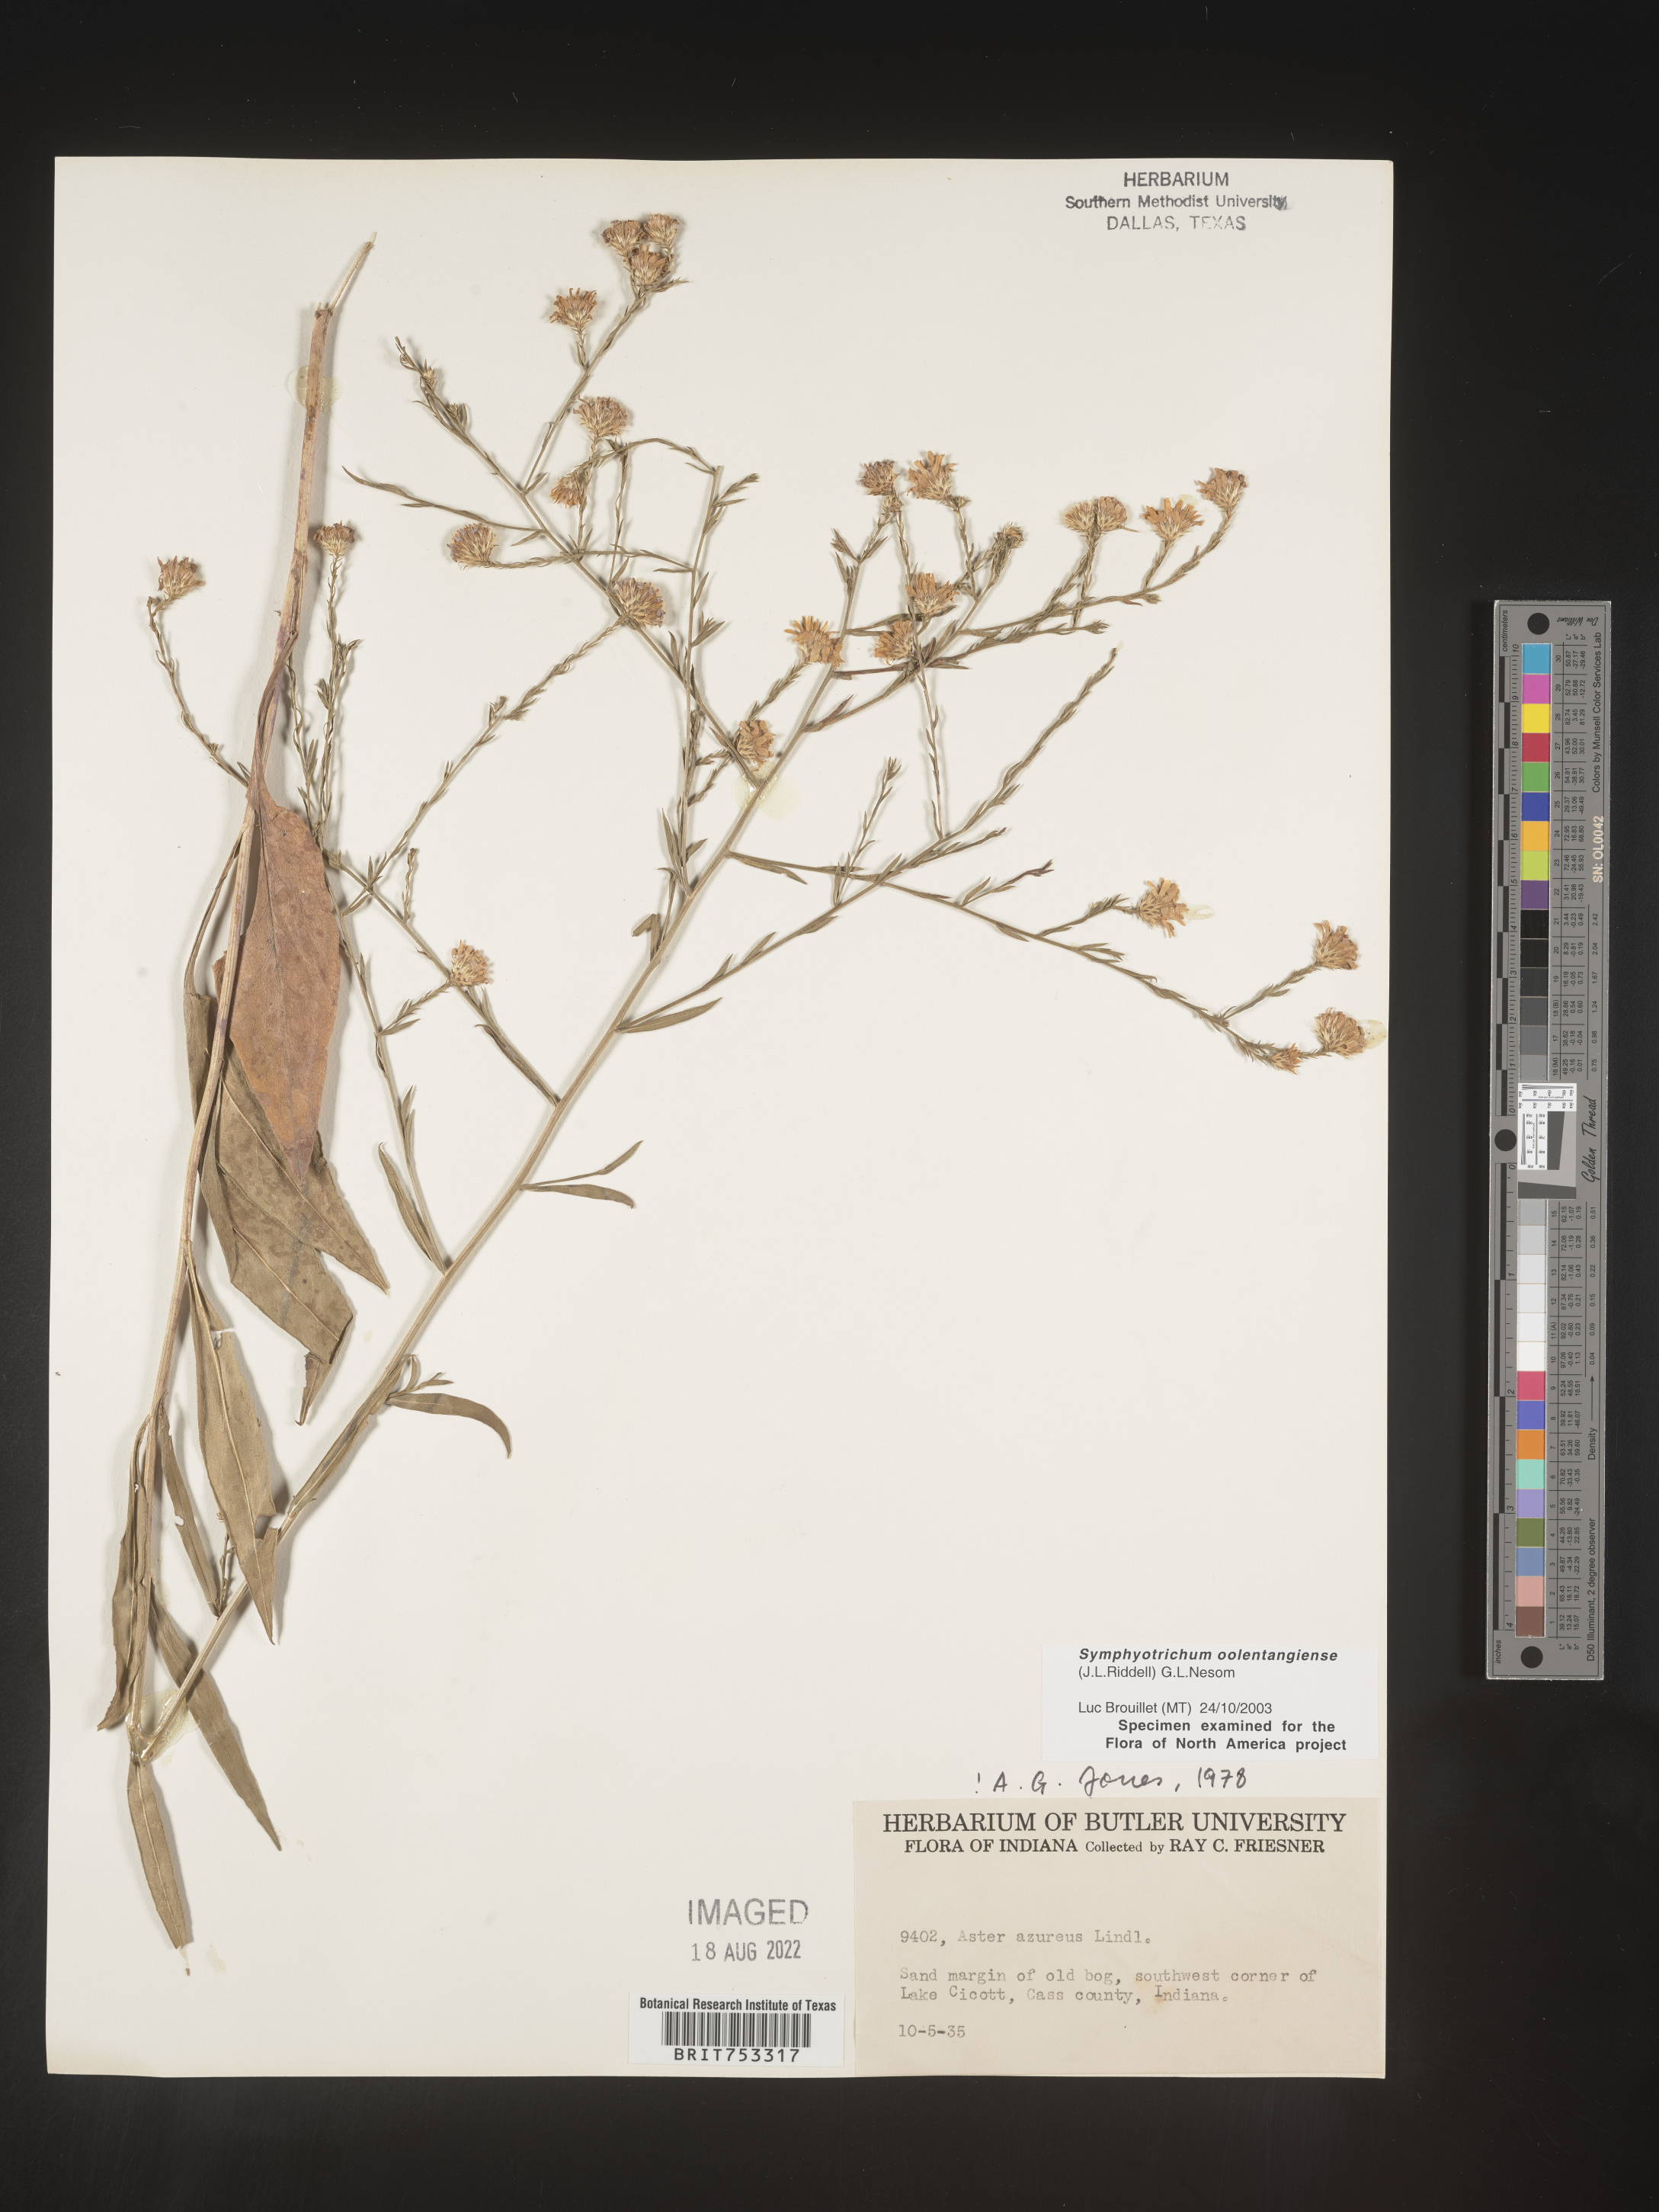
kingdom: Plantae
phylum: Tracheophyta
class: Magnoliopsida
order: Asterales
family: Asteraceae
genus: Symphyotrichum
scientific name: Symphyotrichum oolentangiense
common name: Azure aster
